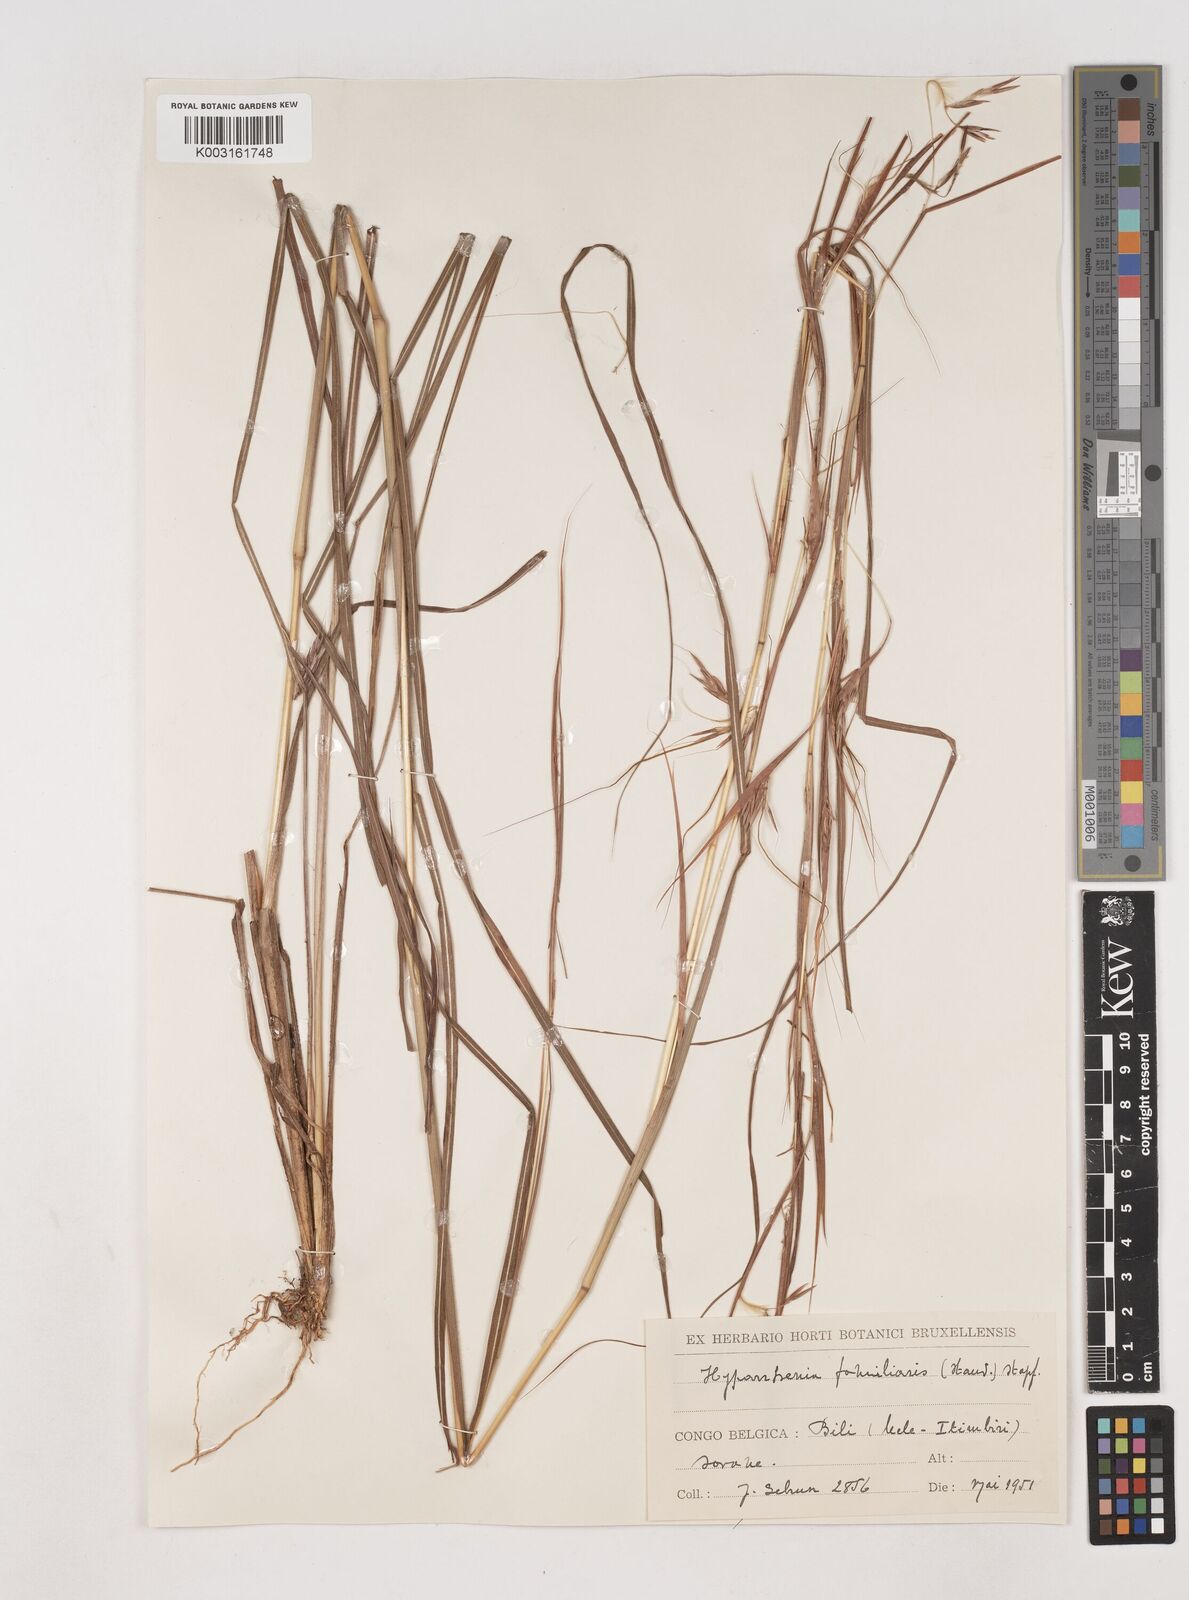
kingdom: Plantae
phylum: Tracheophyta
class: Liliopsida
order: Poales
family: Poaceae
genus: Hyparrhenia
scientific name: Hyparrhenia familiaris
